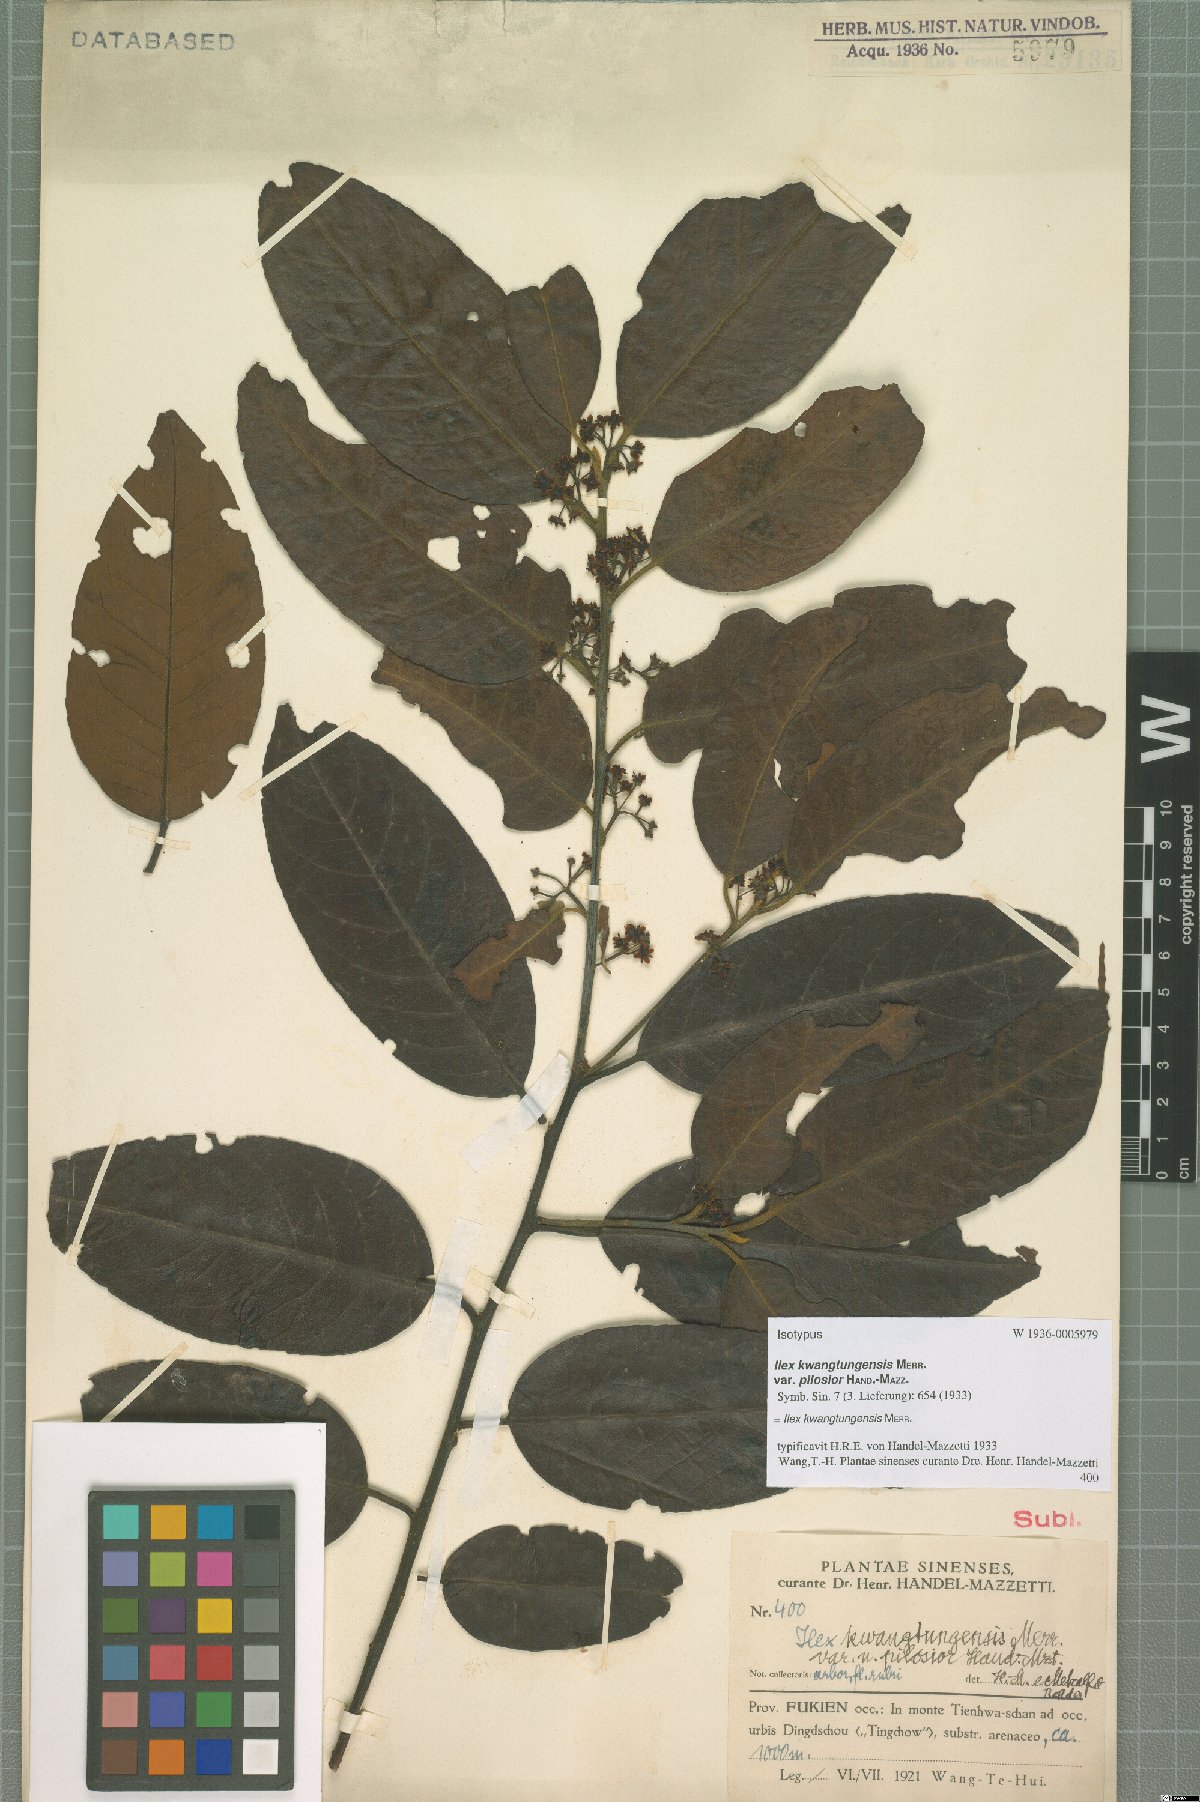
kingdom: Plantae
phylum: Tracheophyta
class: Magnoliopsida
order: Aquifoliales
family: Aquifoliaceae
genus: Ilex
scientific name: Ilex kwangtungensis
